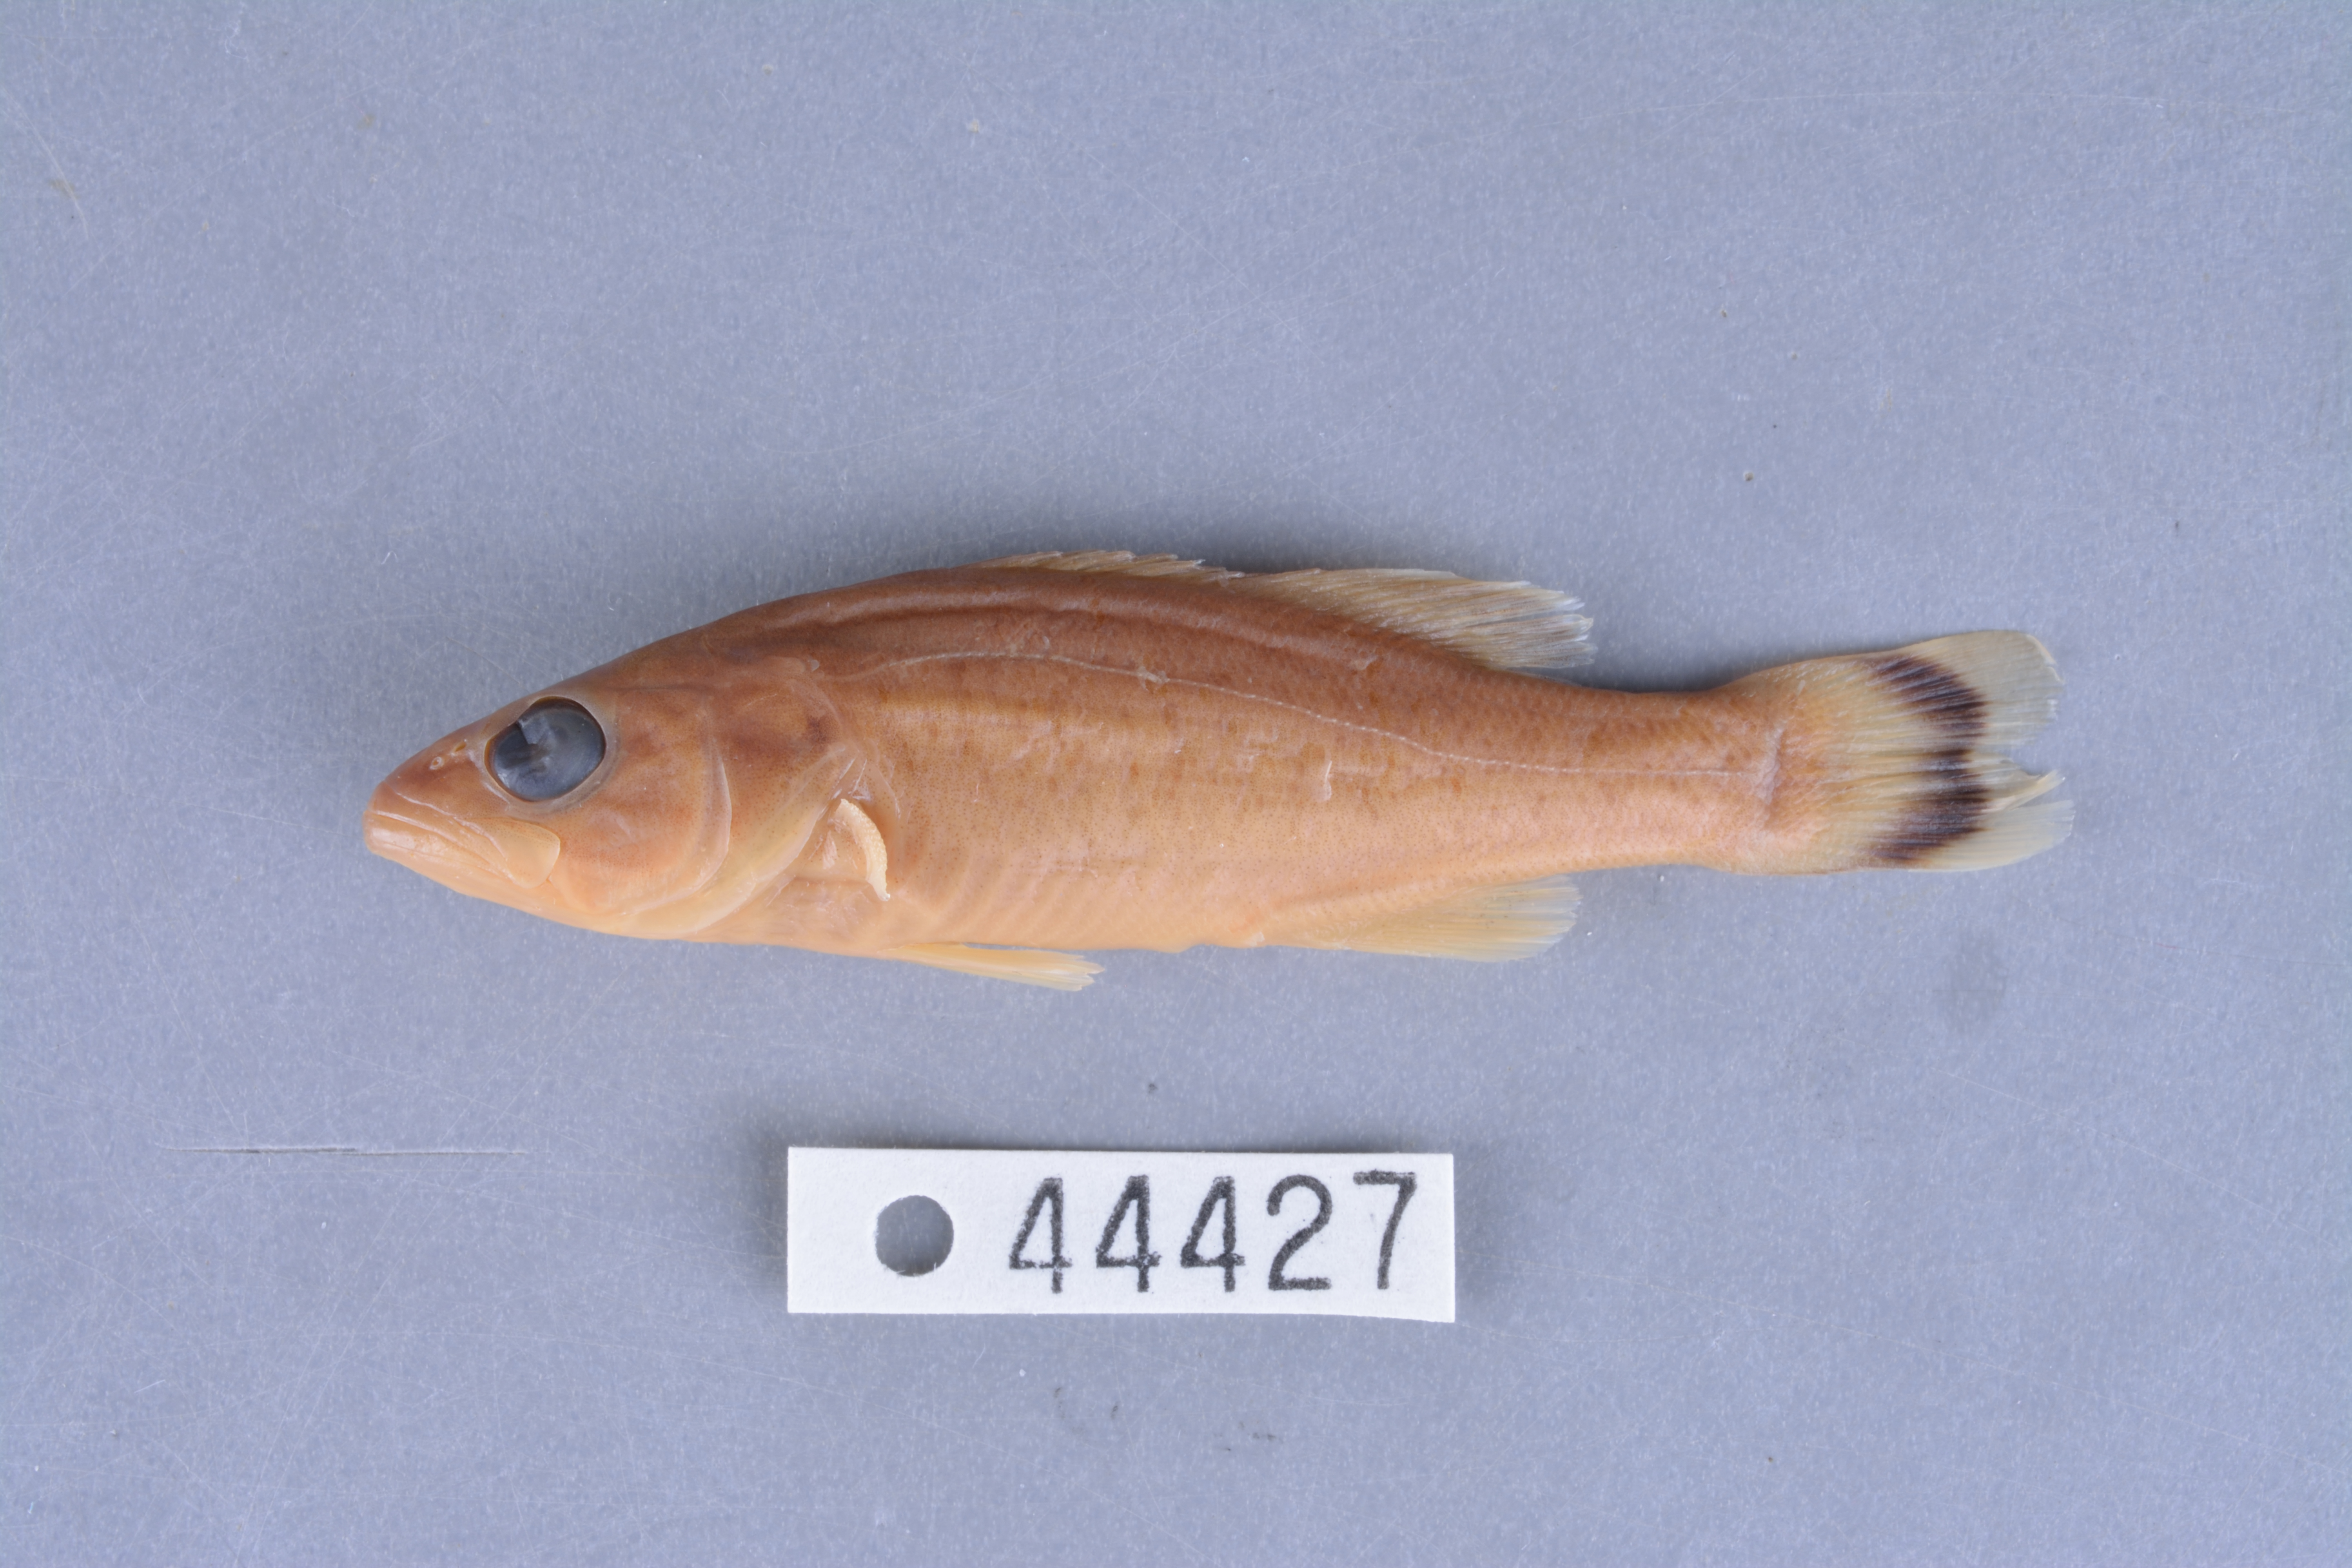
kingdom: Animalia
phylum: Chordata
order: Perciformes
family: Centrarchidae
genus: Micropterus
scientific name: Micropterus dolomieu
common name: Smallmouth bass
